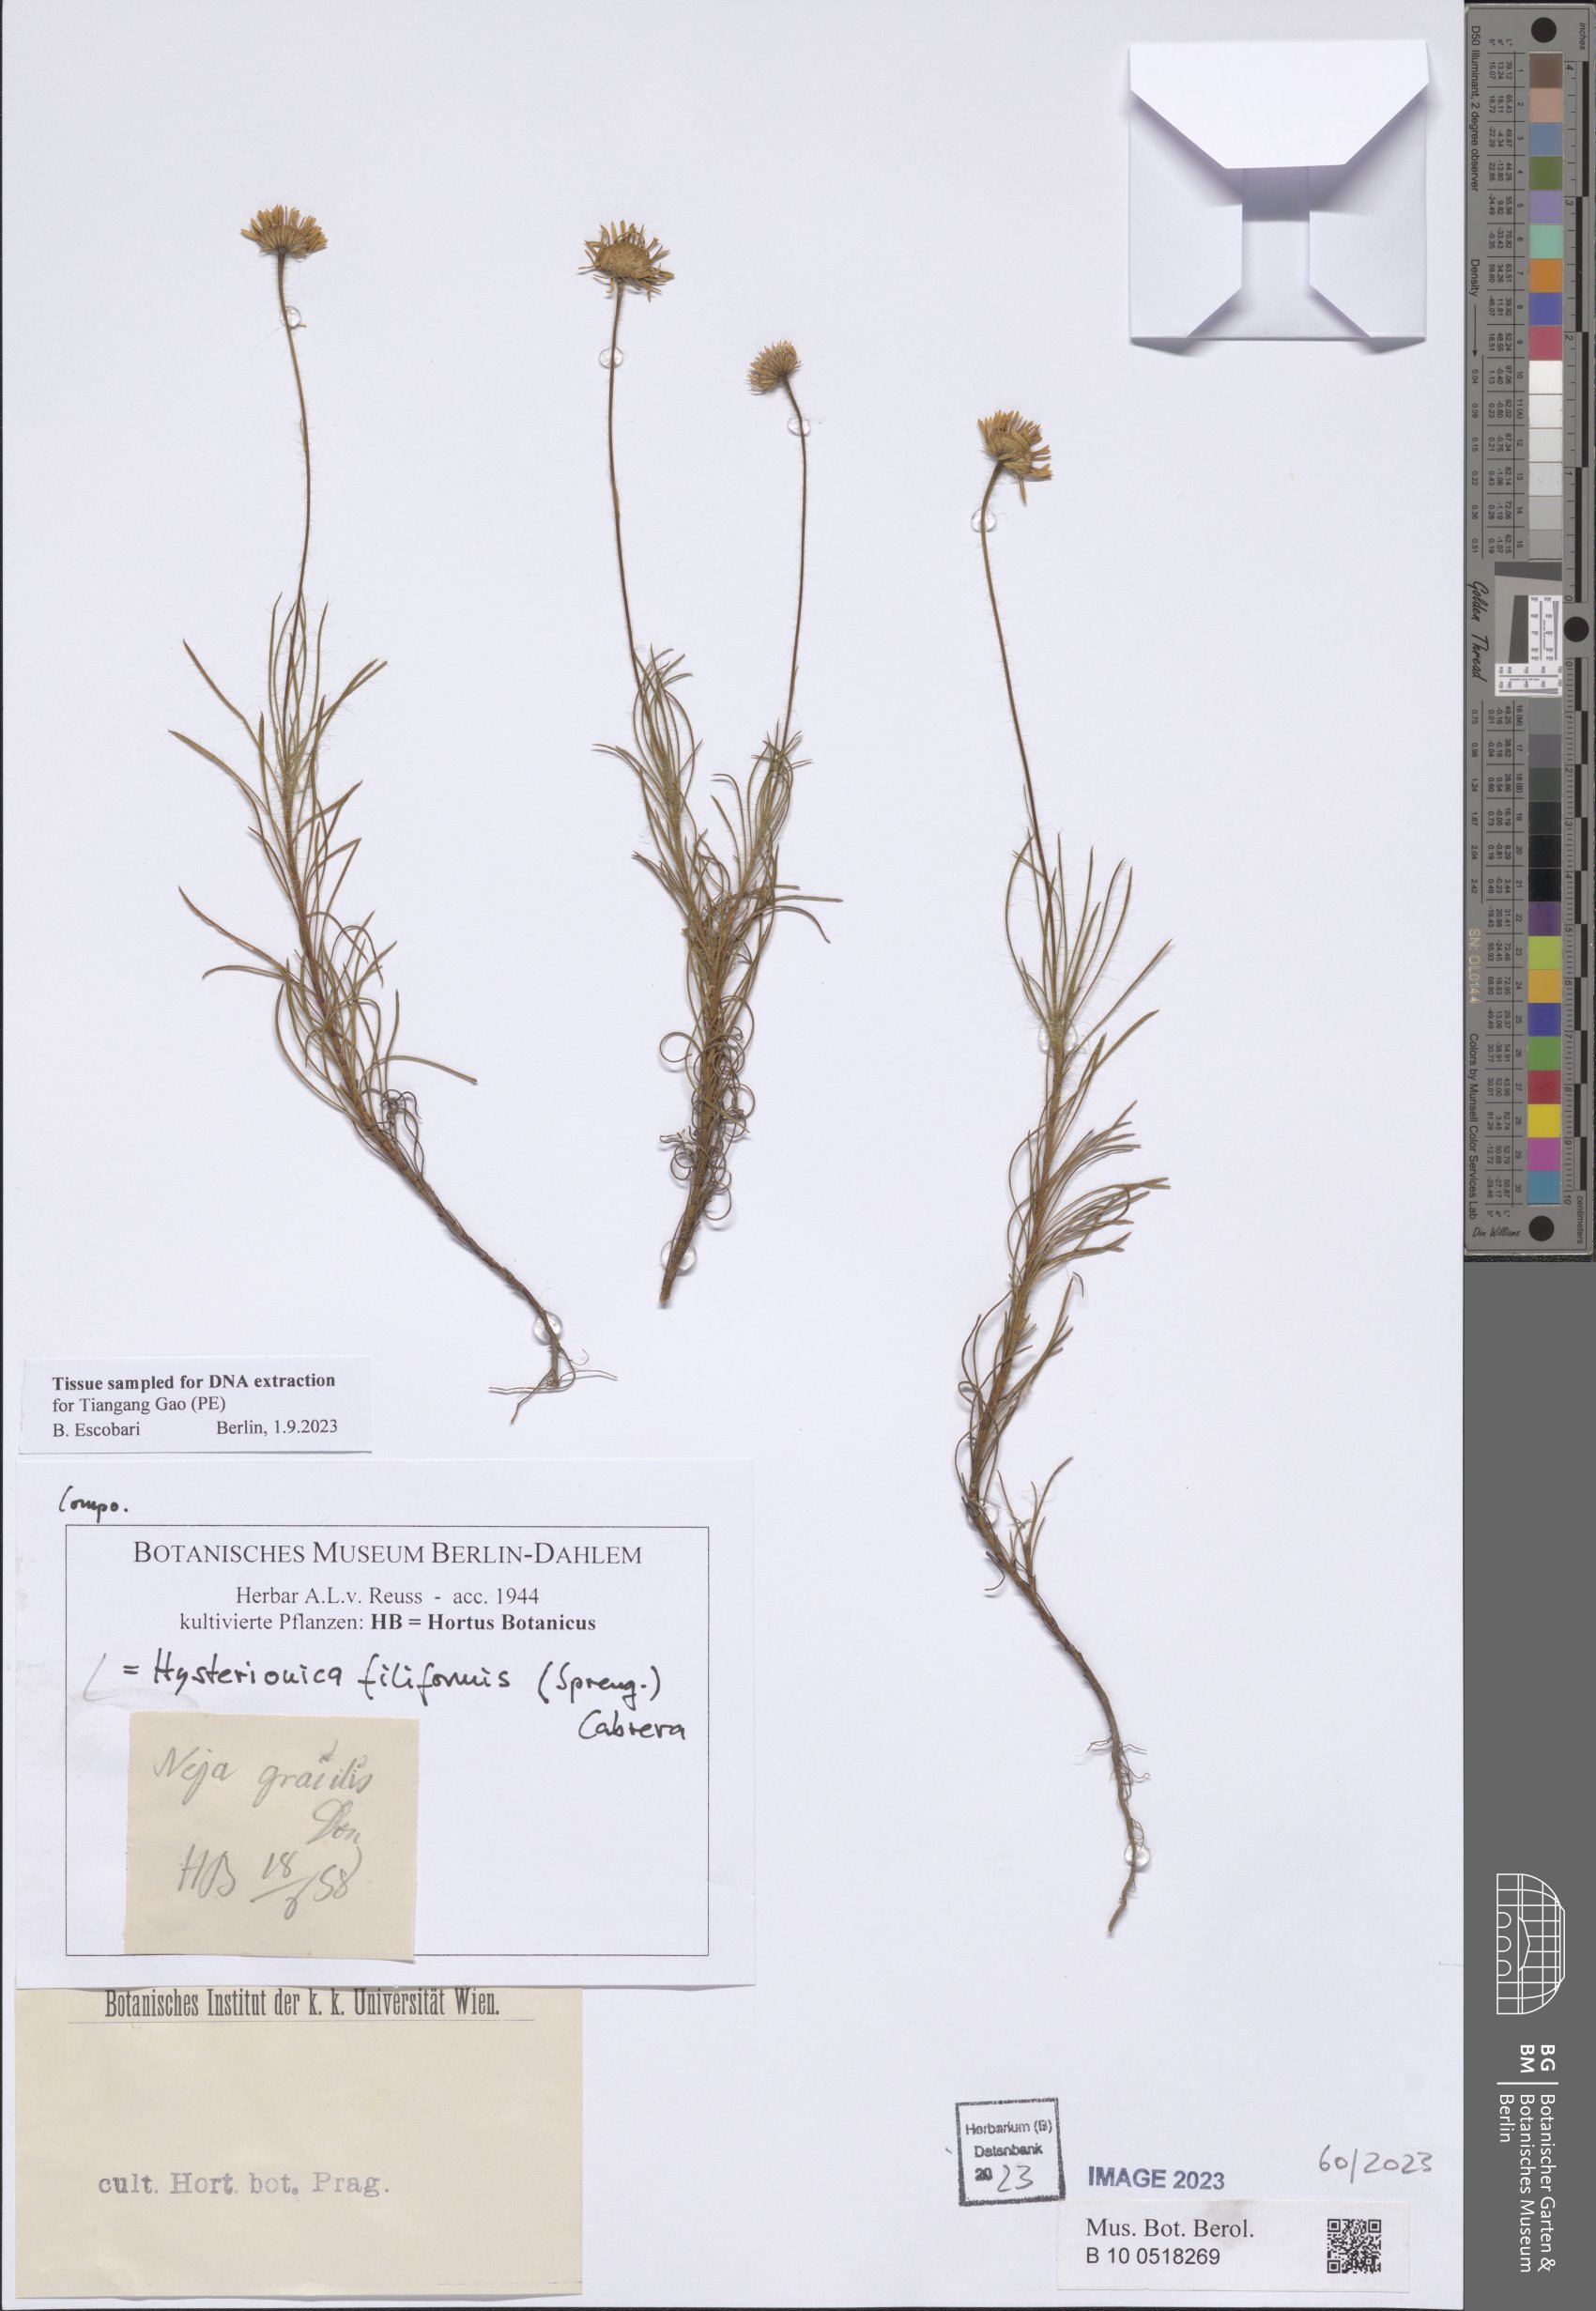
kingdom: Plantae
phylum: Tracheophyta
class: Magnoliopsida
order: Asterales
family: Asteraceae
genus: Neja
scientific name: Neja filiformis
